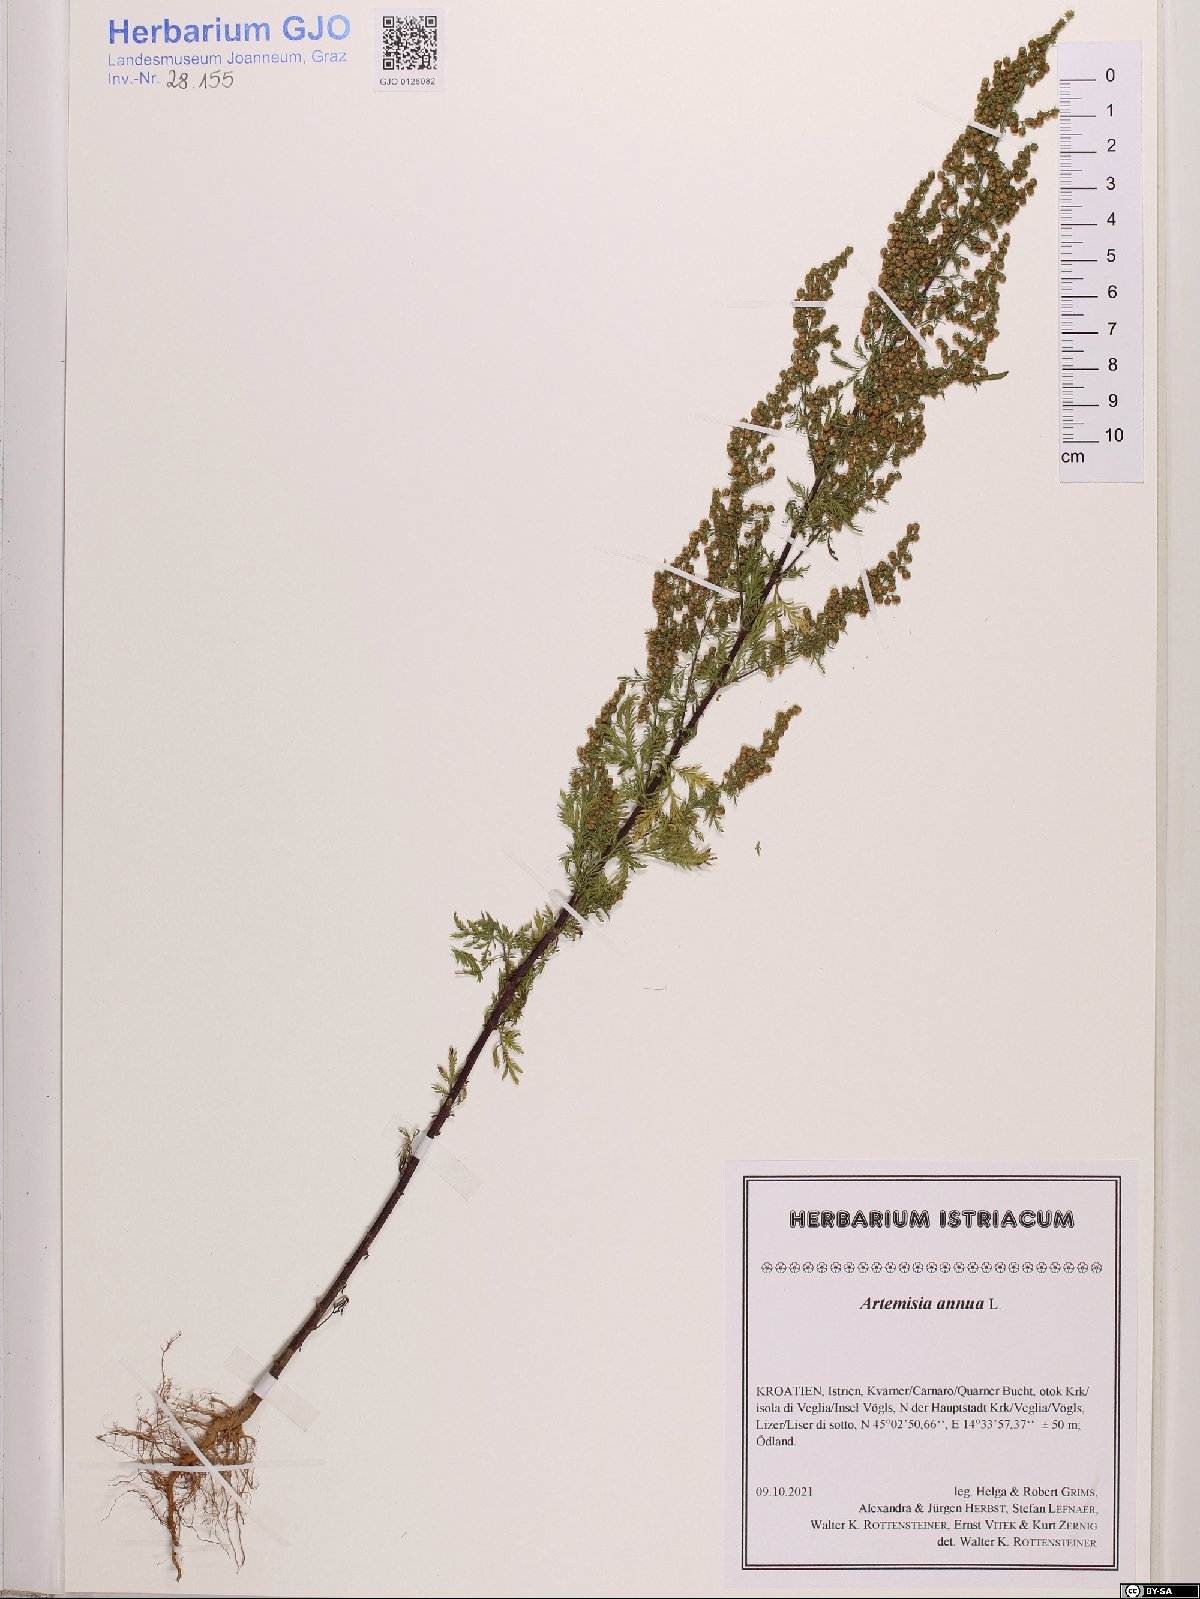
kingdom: Plantae
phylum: Tracheophyta
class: Magnoliopsida
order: Asterales
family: Asteraceae
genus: Artemisia
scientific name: Artemisia annua
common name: Sweet sagewort
